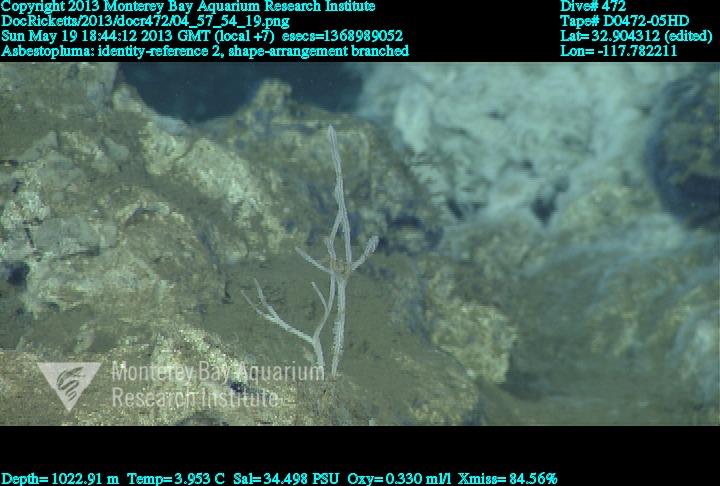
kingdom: Animalia
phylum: Porifera
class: Demospongiae
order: Poecilosclerida
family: Cladorhizidae
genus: Asbestopluma
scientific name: Asbestopluma
